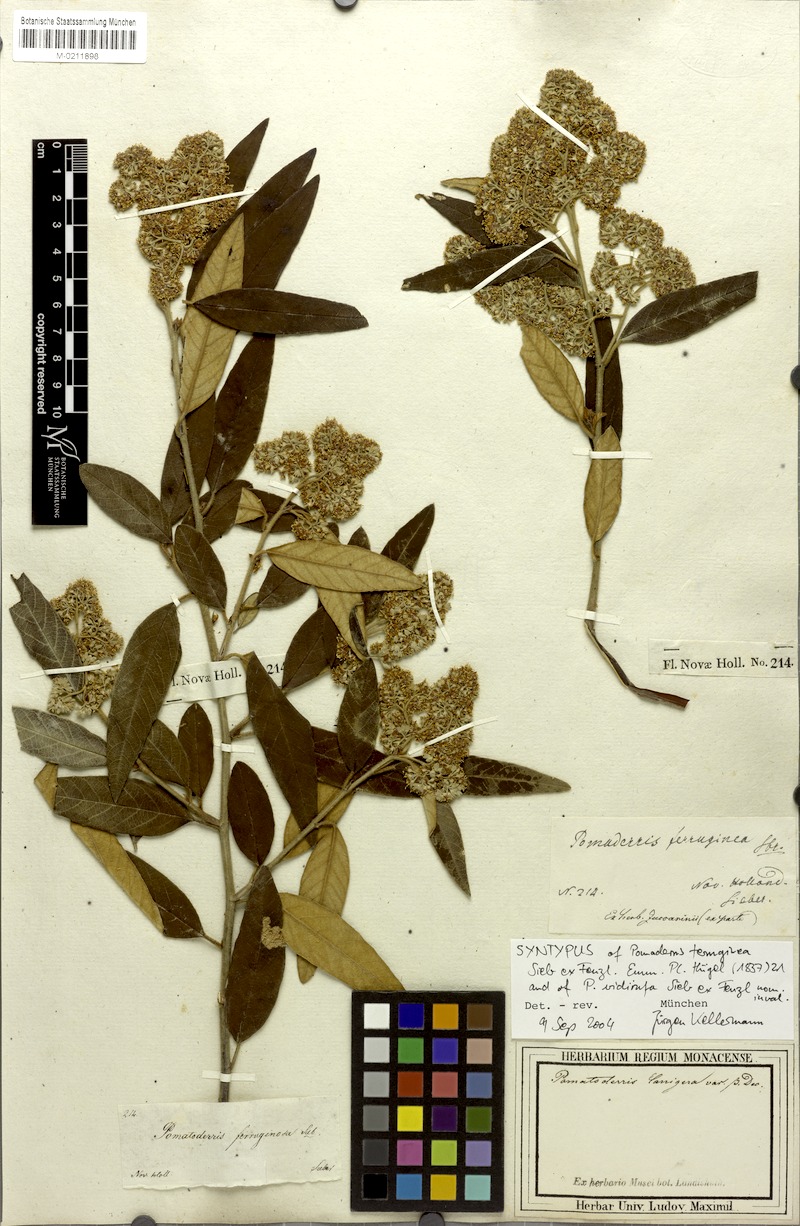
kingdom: Plantae
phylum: Tracheophyta
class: Magnoliopsida
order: Rosales
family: Rhamnaceae
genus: Pomaderris
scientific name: Pomaderris wendlandiana
